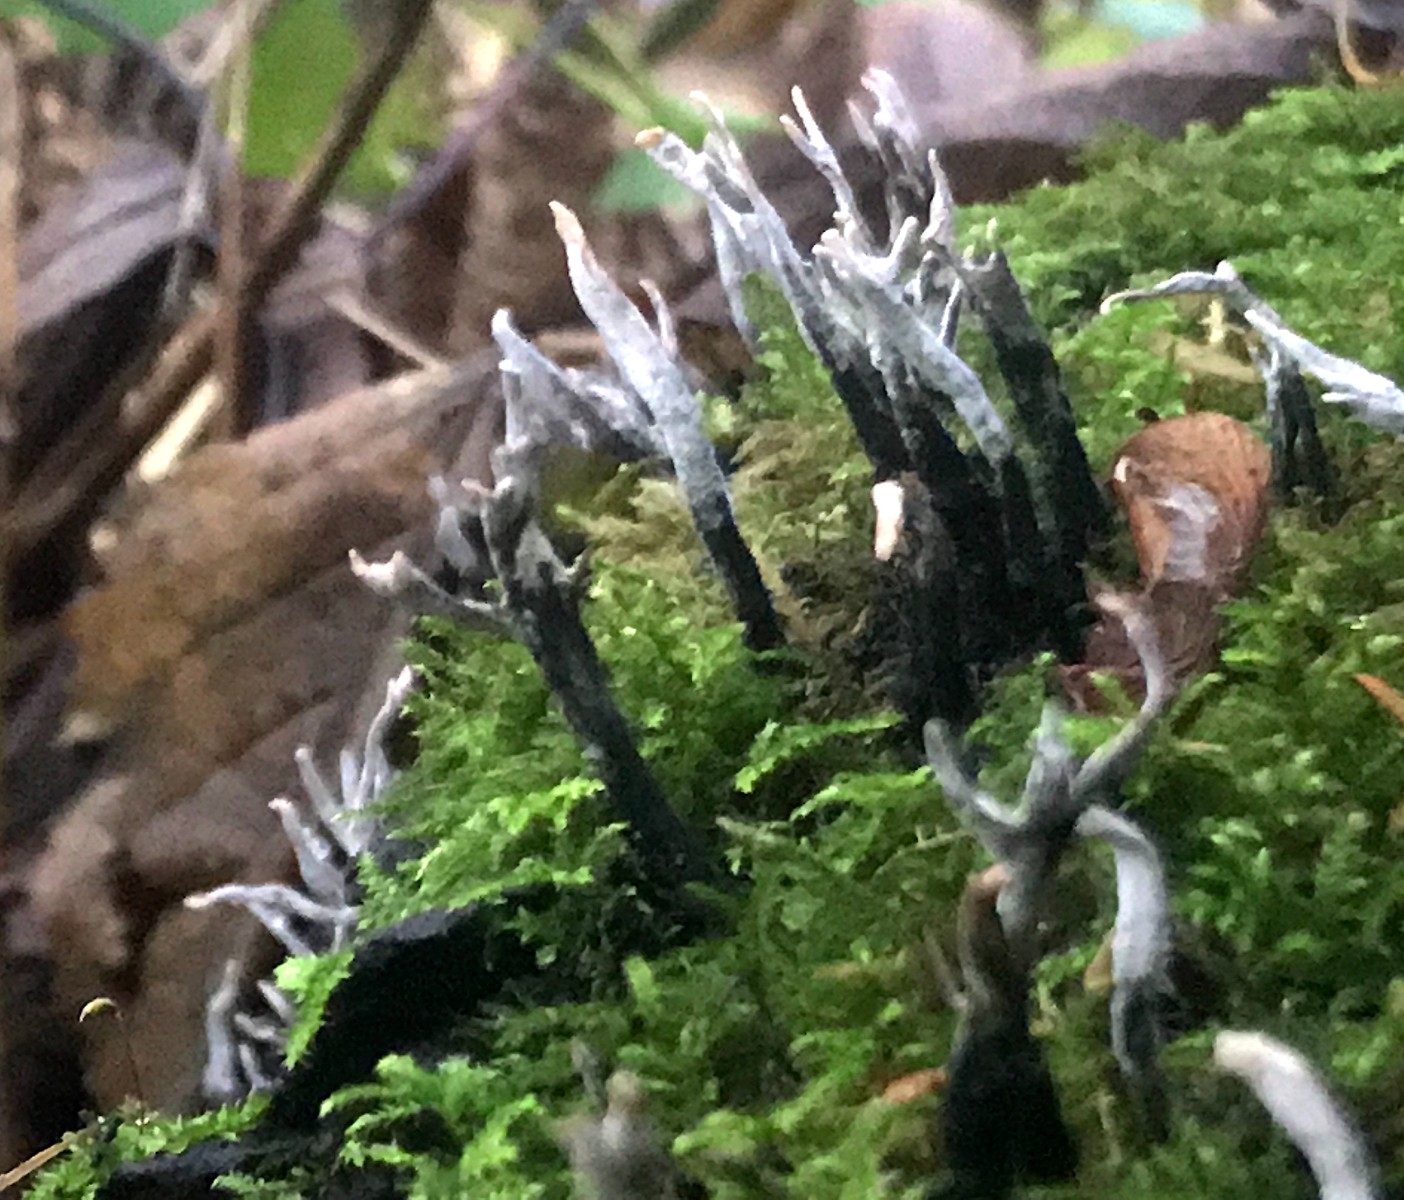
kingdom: Fungi
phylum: Ascomycota
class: Sordariomycetes
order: Xylariales
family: Xylariaceae
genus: Xylaria
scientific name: Xylaria hypoxylon
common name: grenet stødsvamp
